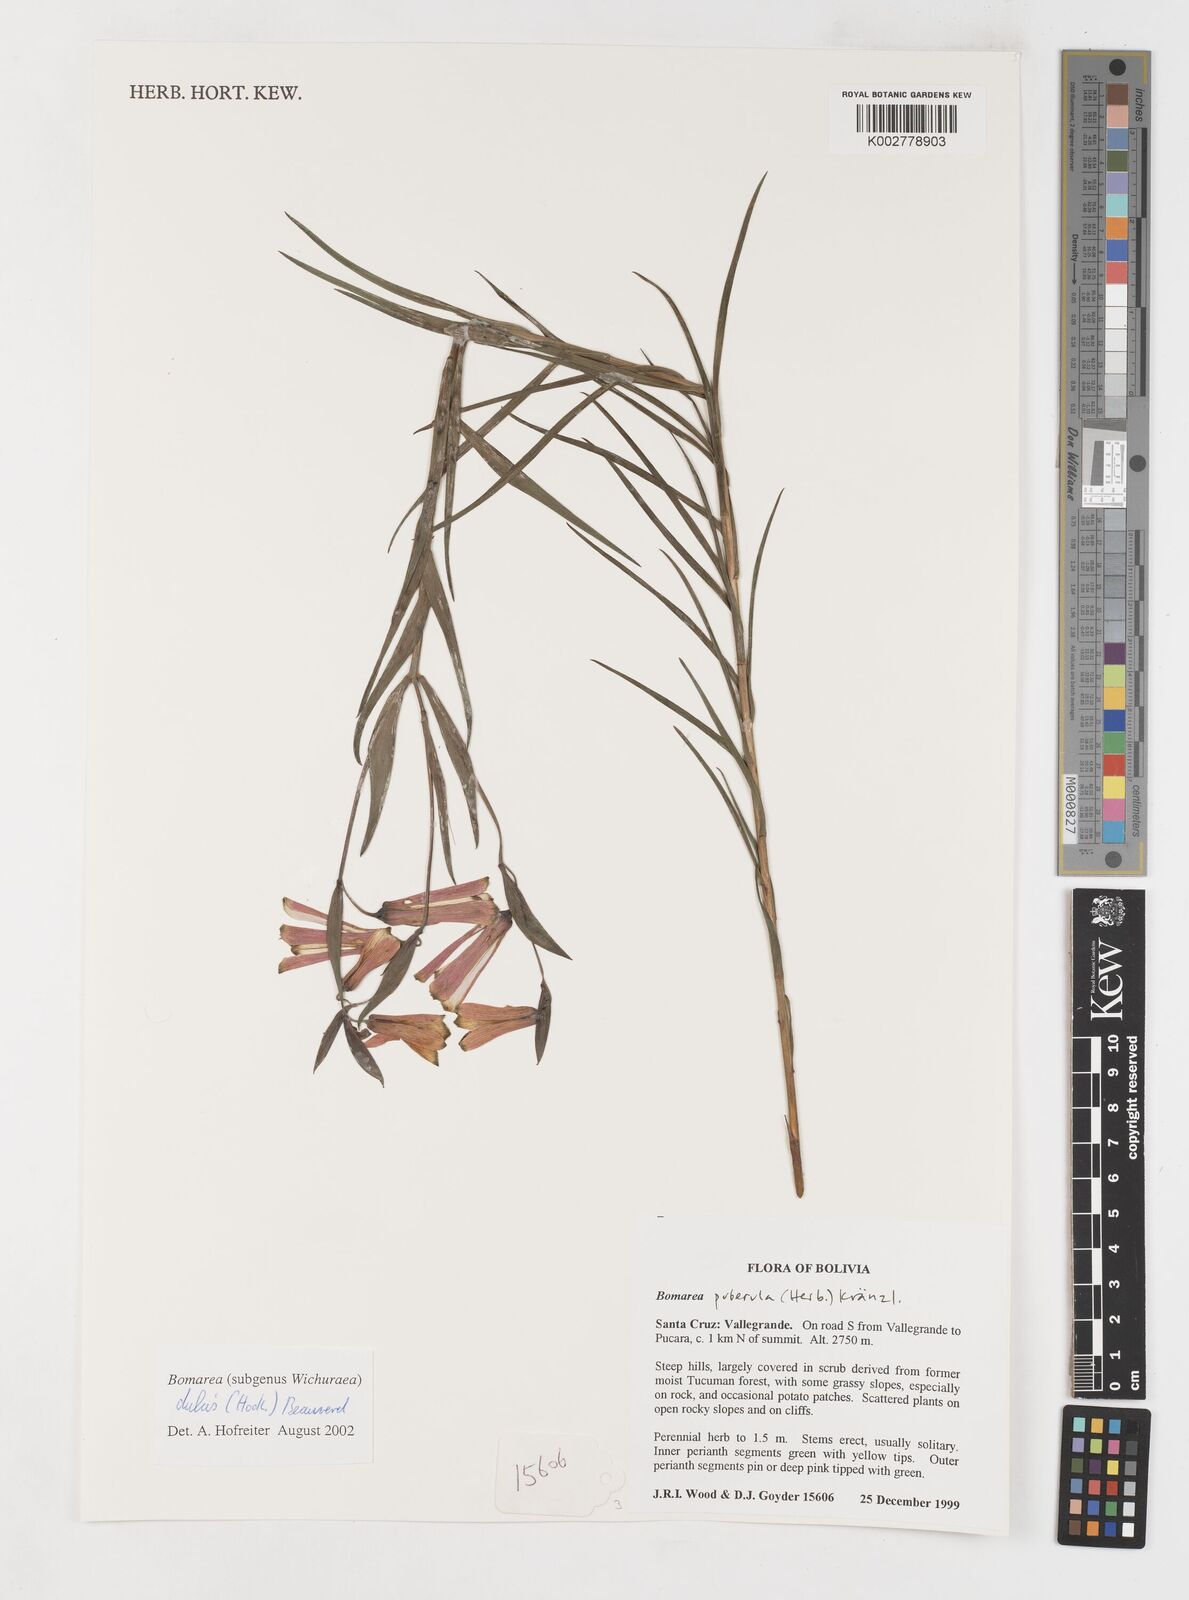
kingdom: Plantae
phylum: Tracheophyta
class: Liliopsida
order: Liliales
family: Alstroemeriaceae
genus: Bomarea
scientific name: Bomarea dulcis
